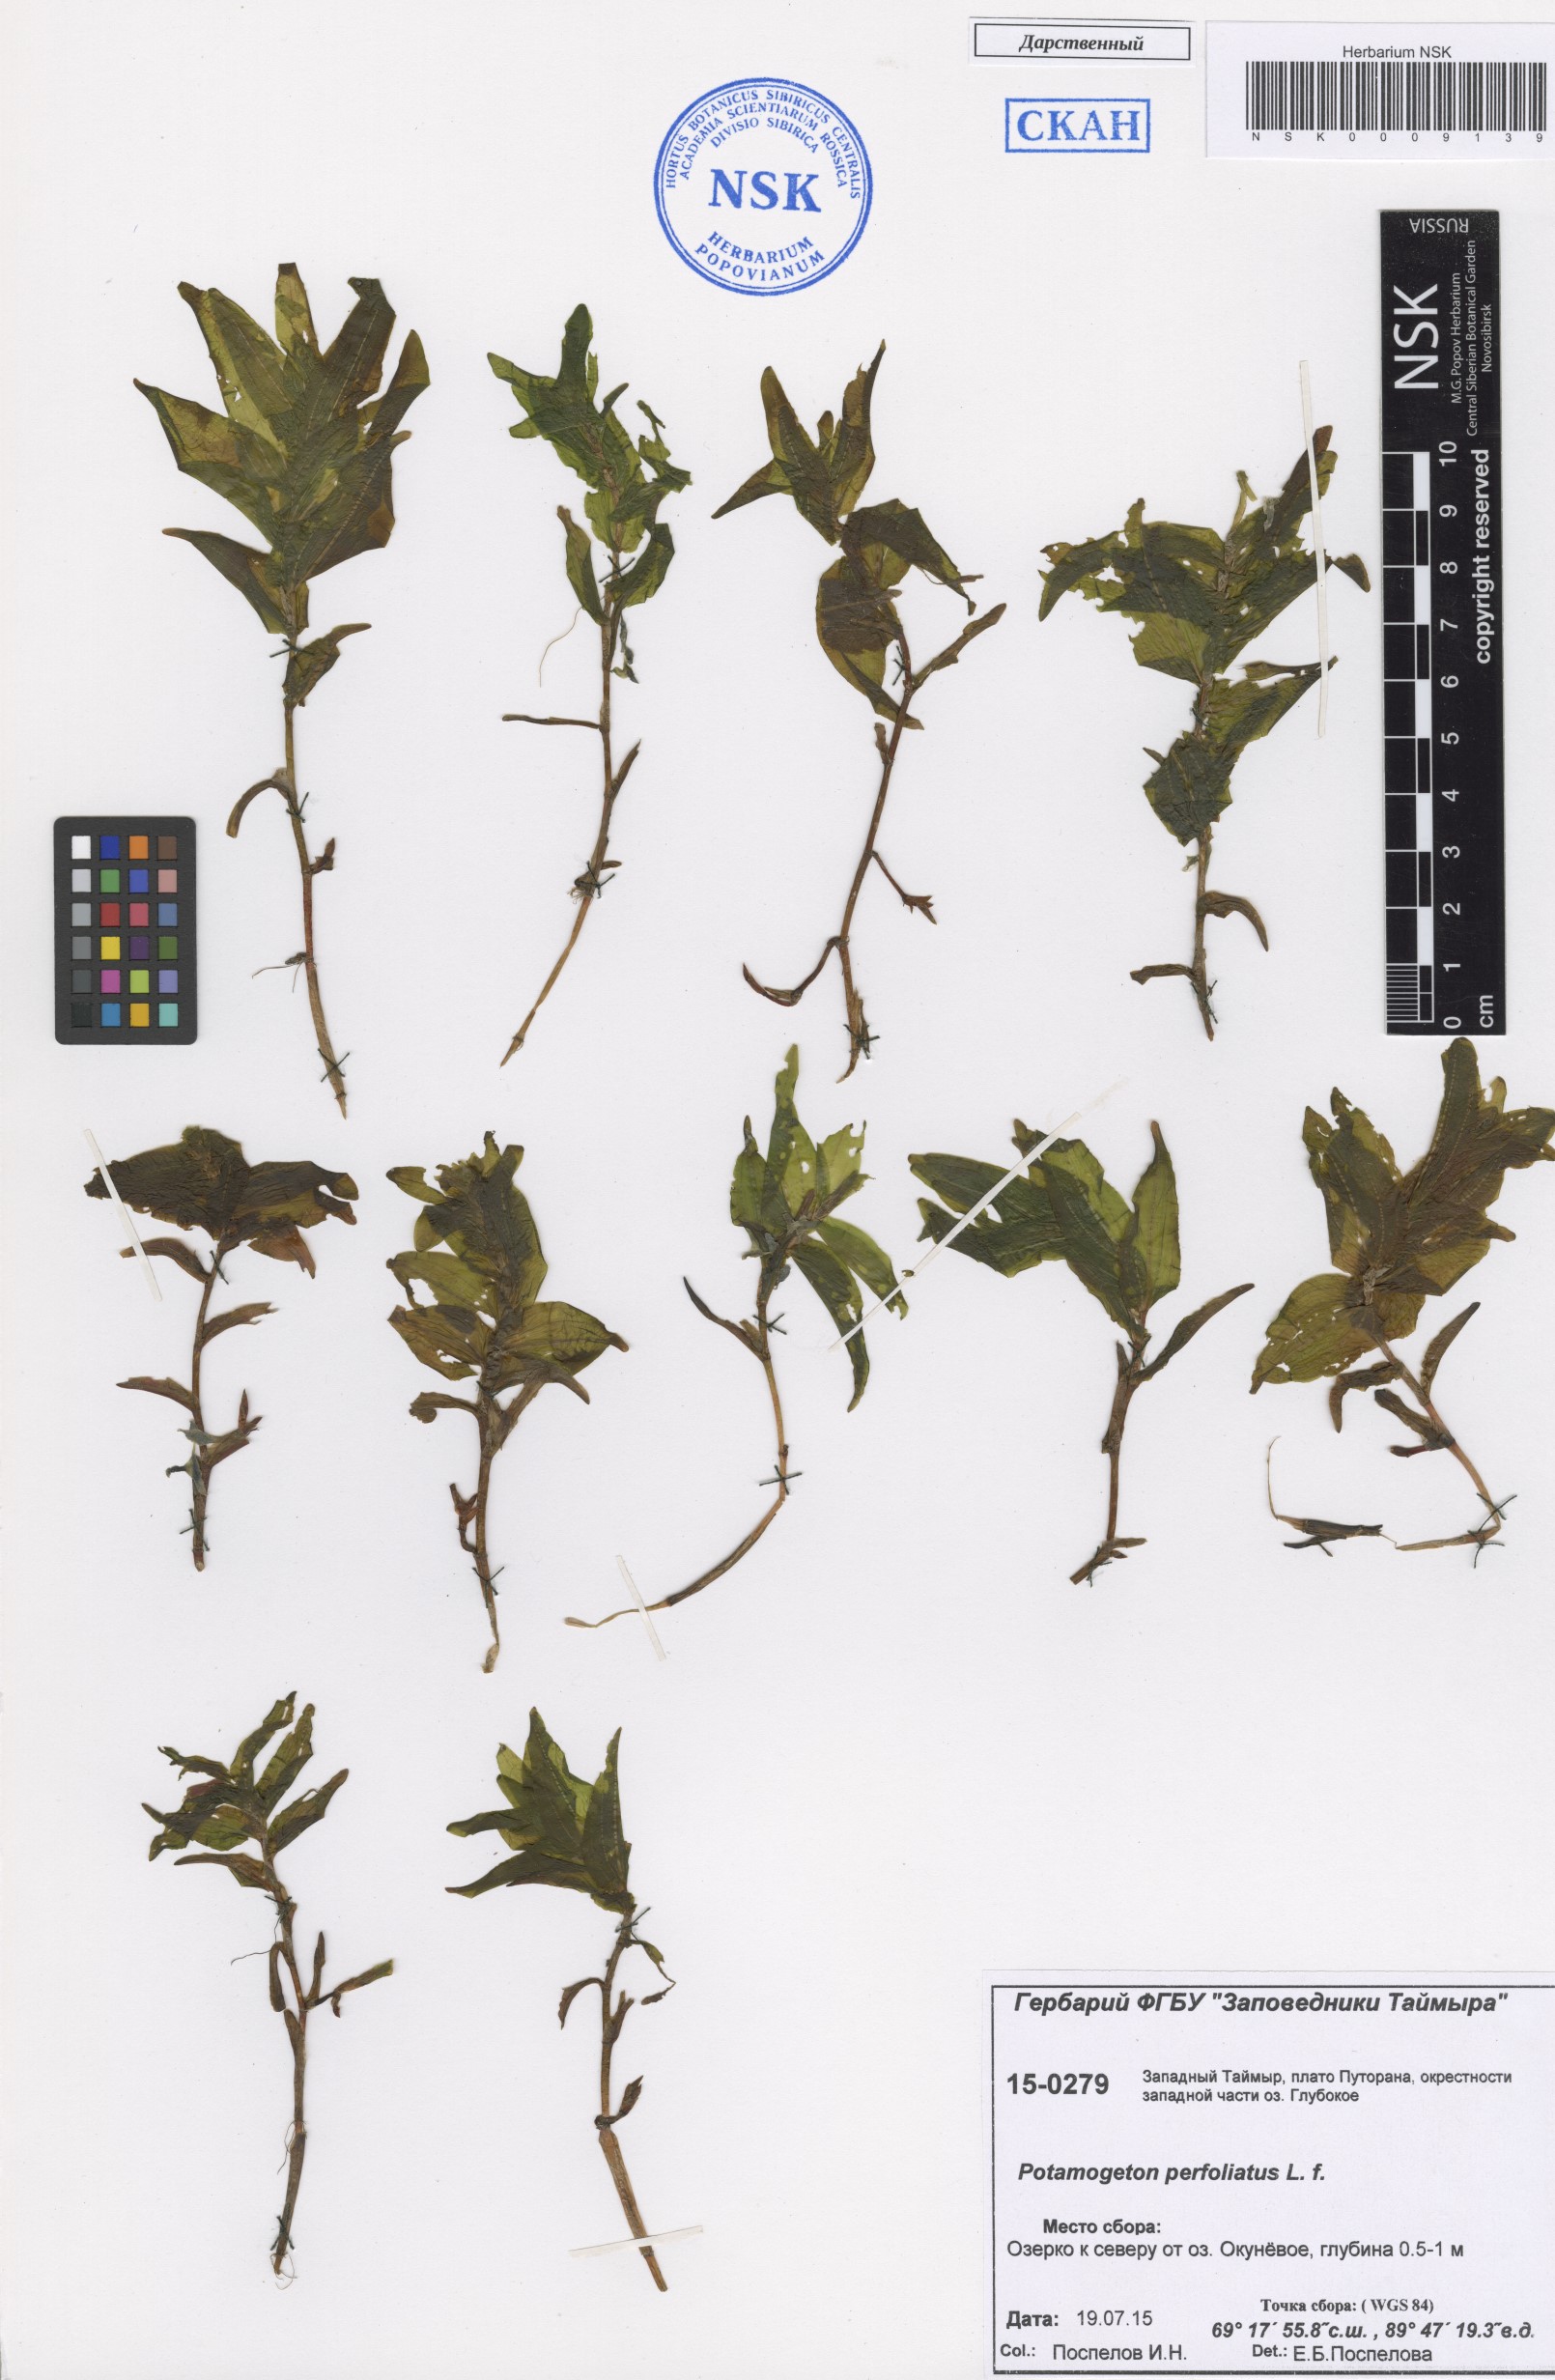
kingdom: Plantae
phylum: Tracheophyta
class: Liliopsida
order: Alismatales
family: Potamogetonaceae
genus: Potamogeton
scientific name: Potamogeton perfoliatus
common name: Perfoliate pondweed
